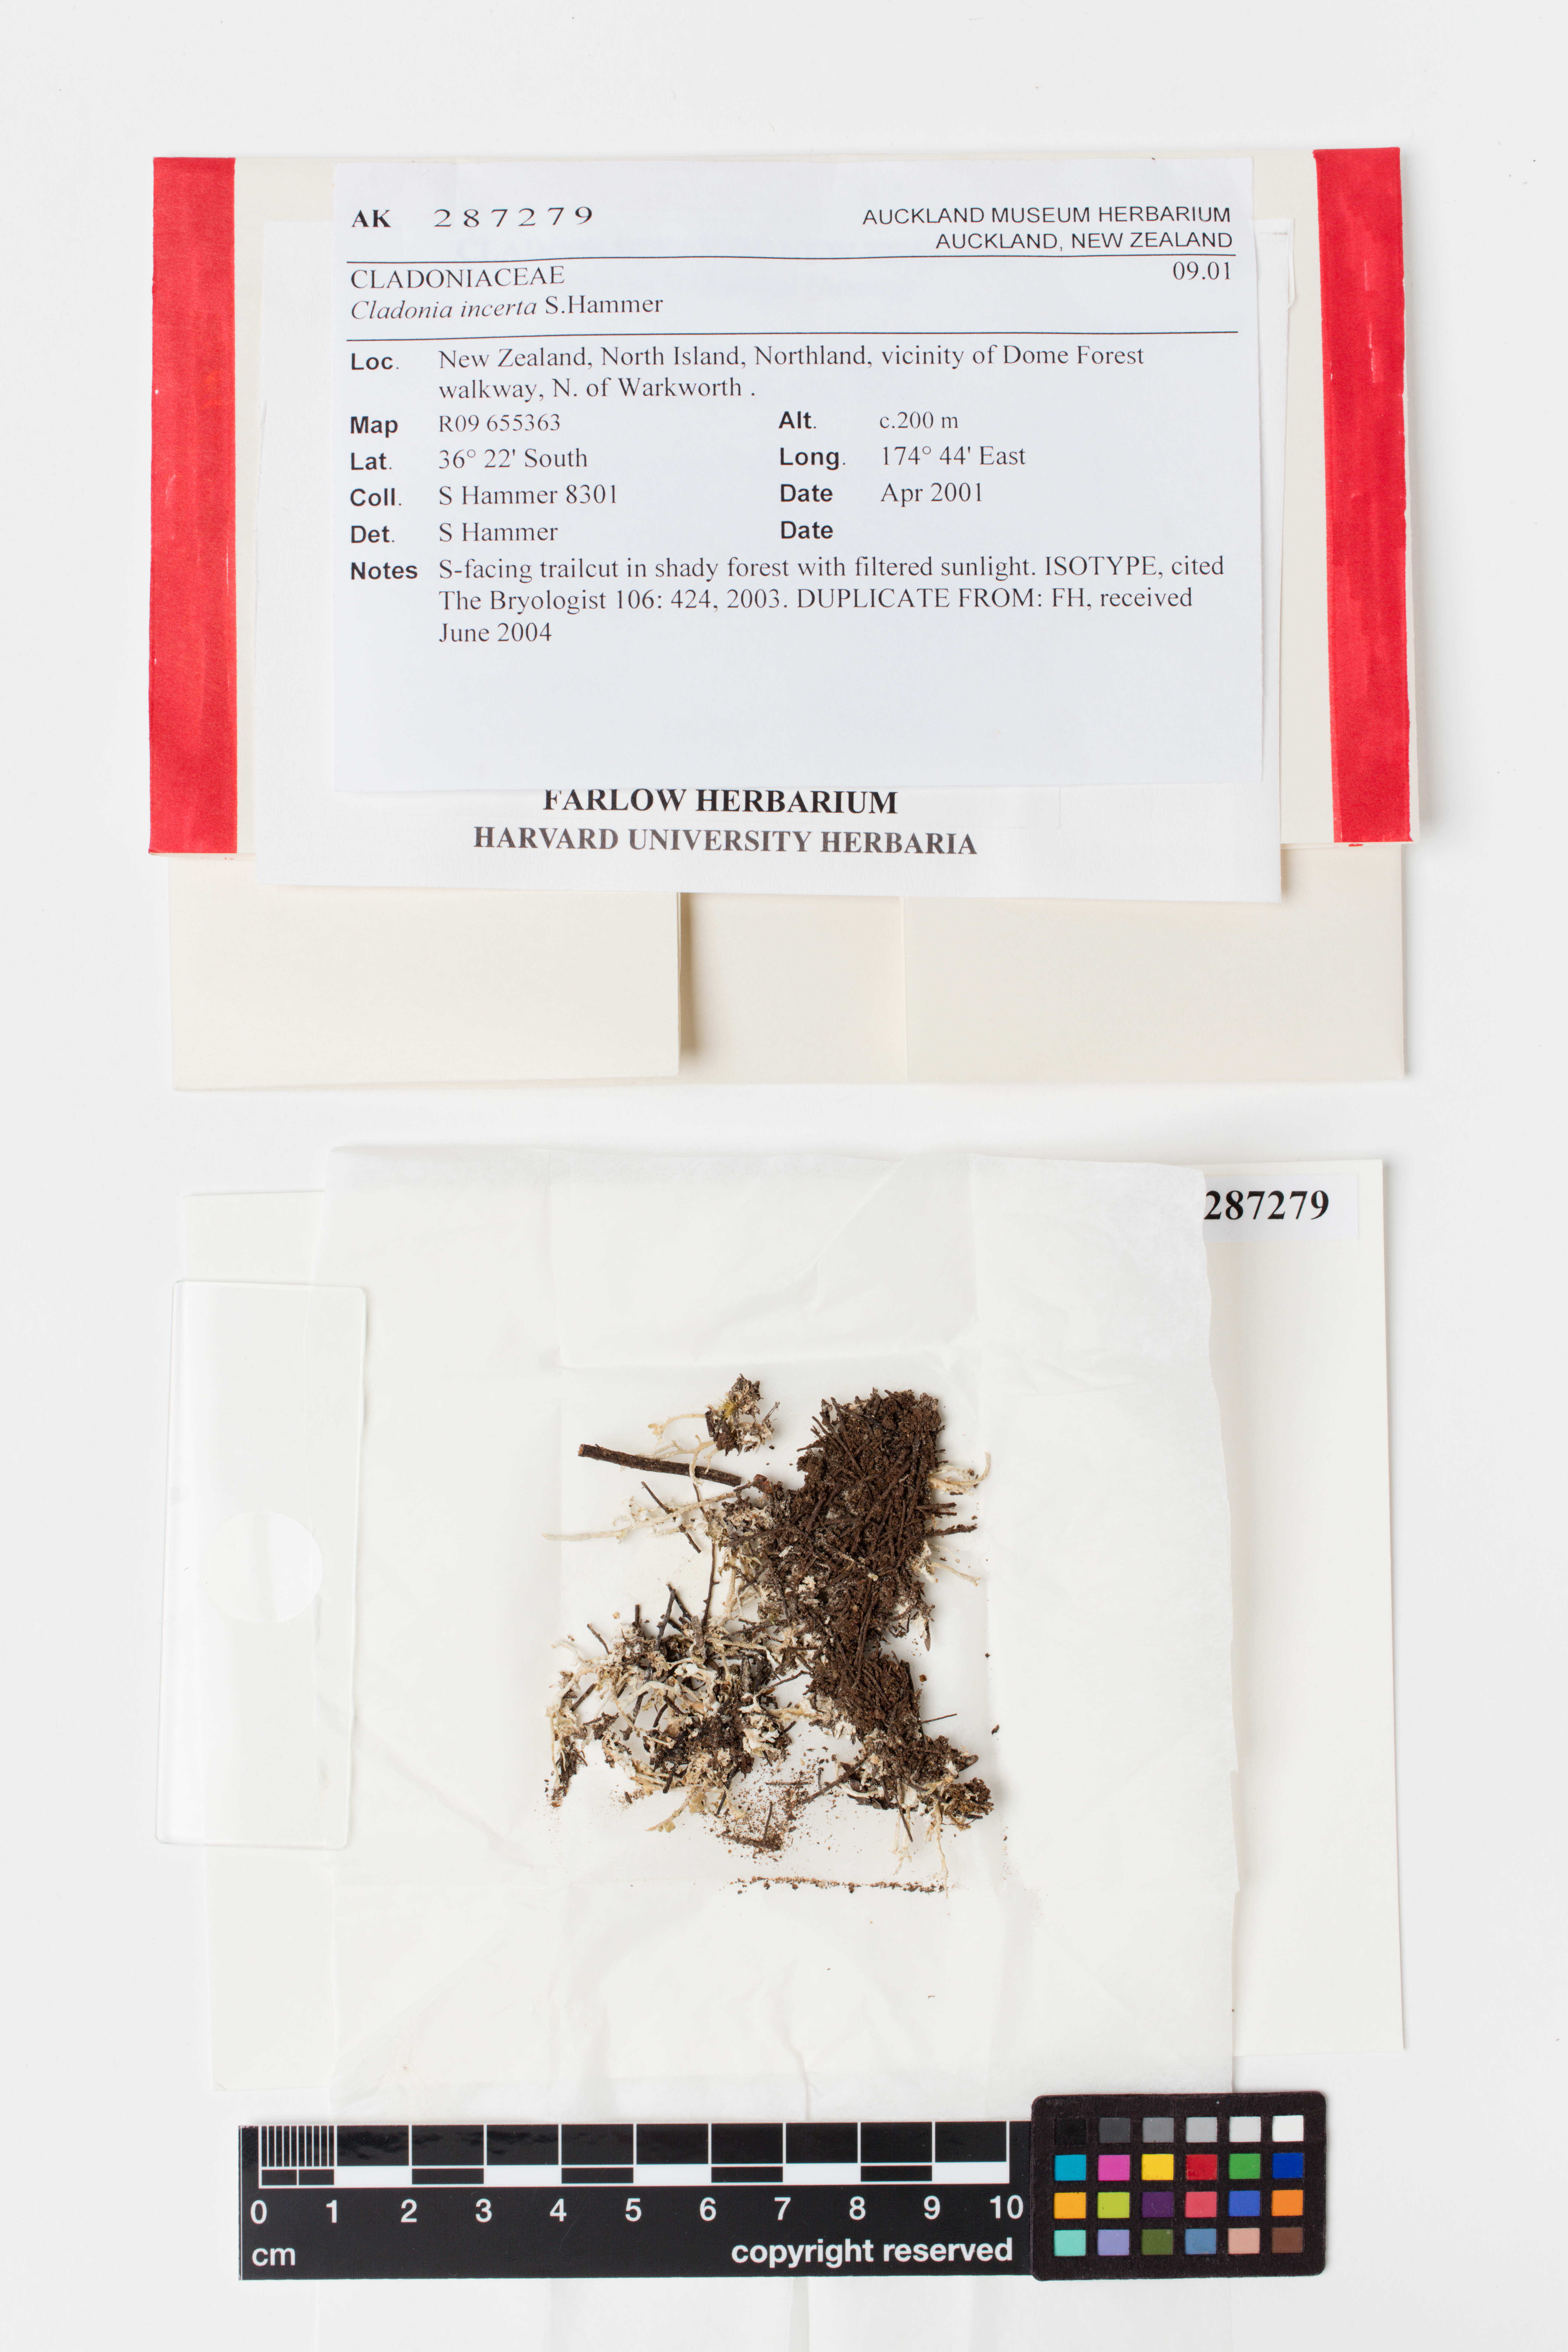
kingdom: Fungi
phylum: Ascomycota
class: Lecanoromycetes
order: Lecanorales
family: Cladoniaceae
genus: Cladonia
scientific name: Cladonia incerta
